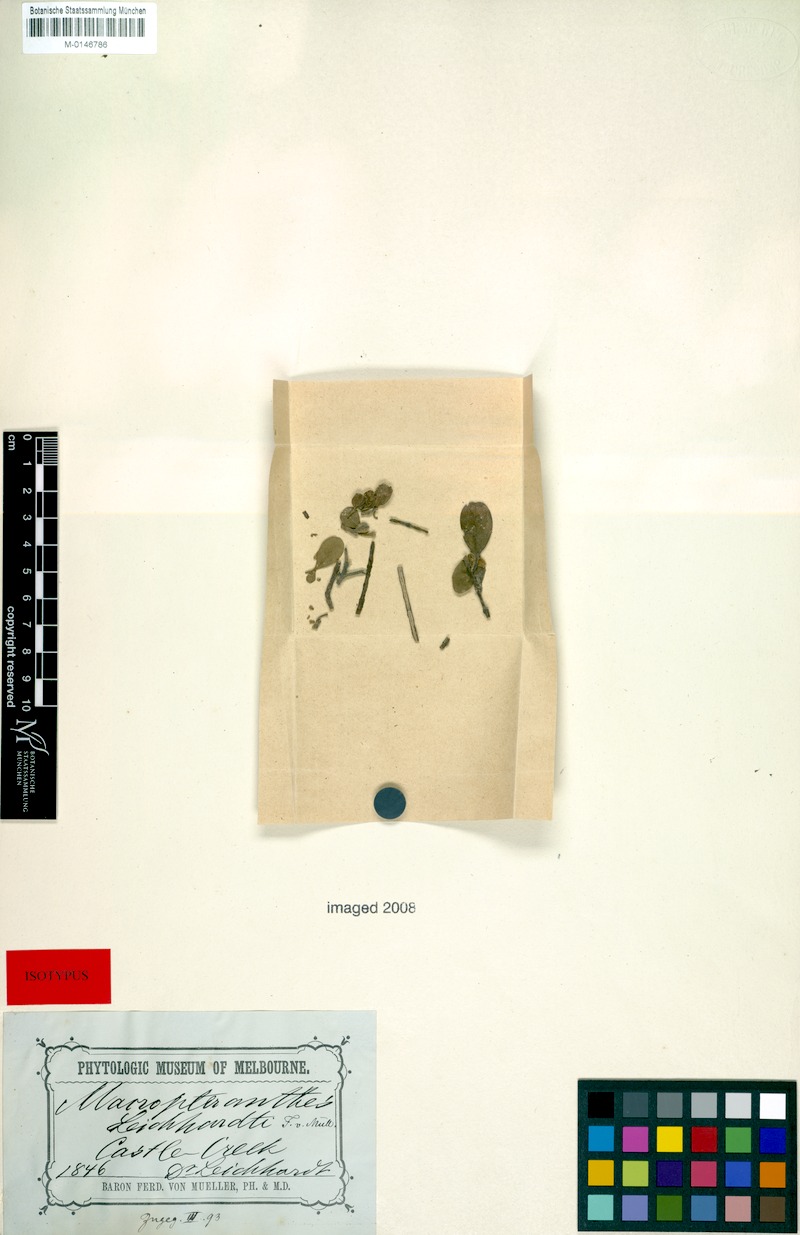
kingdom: Plantae
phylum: Tracheophyta
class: Magnoliopsida
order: Myrtales
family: Combretaceae
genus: Macropteranthes
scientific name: Macropteranthes leichhardtii
